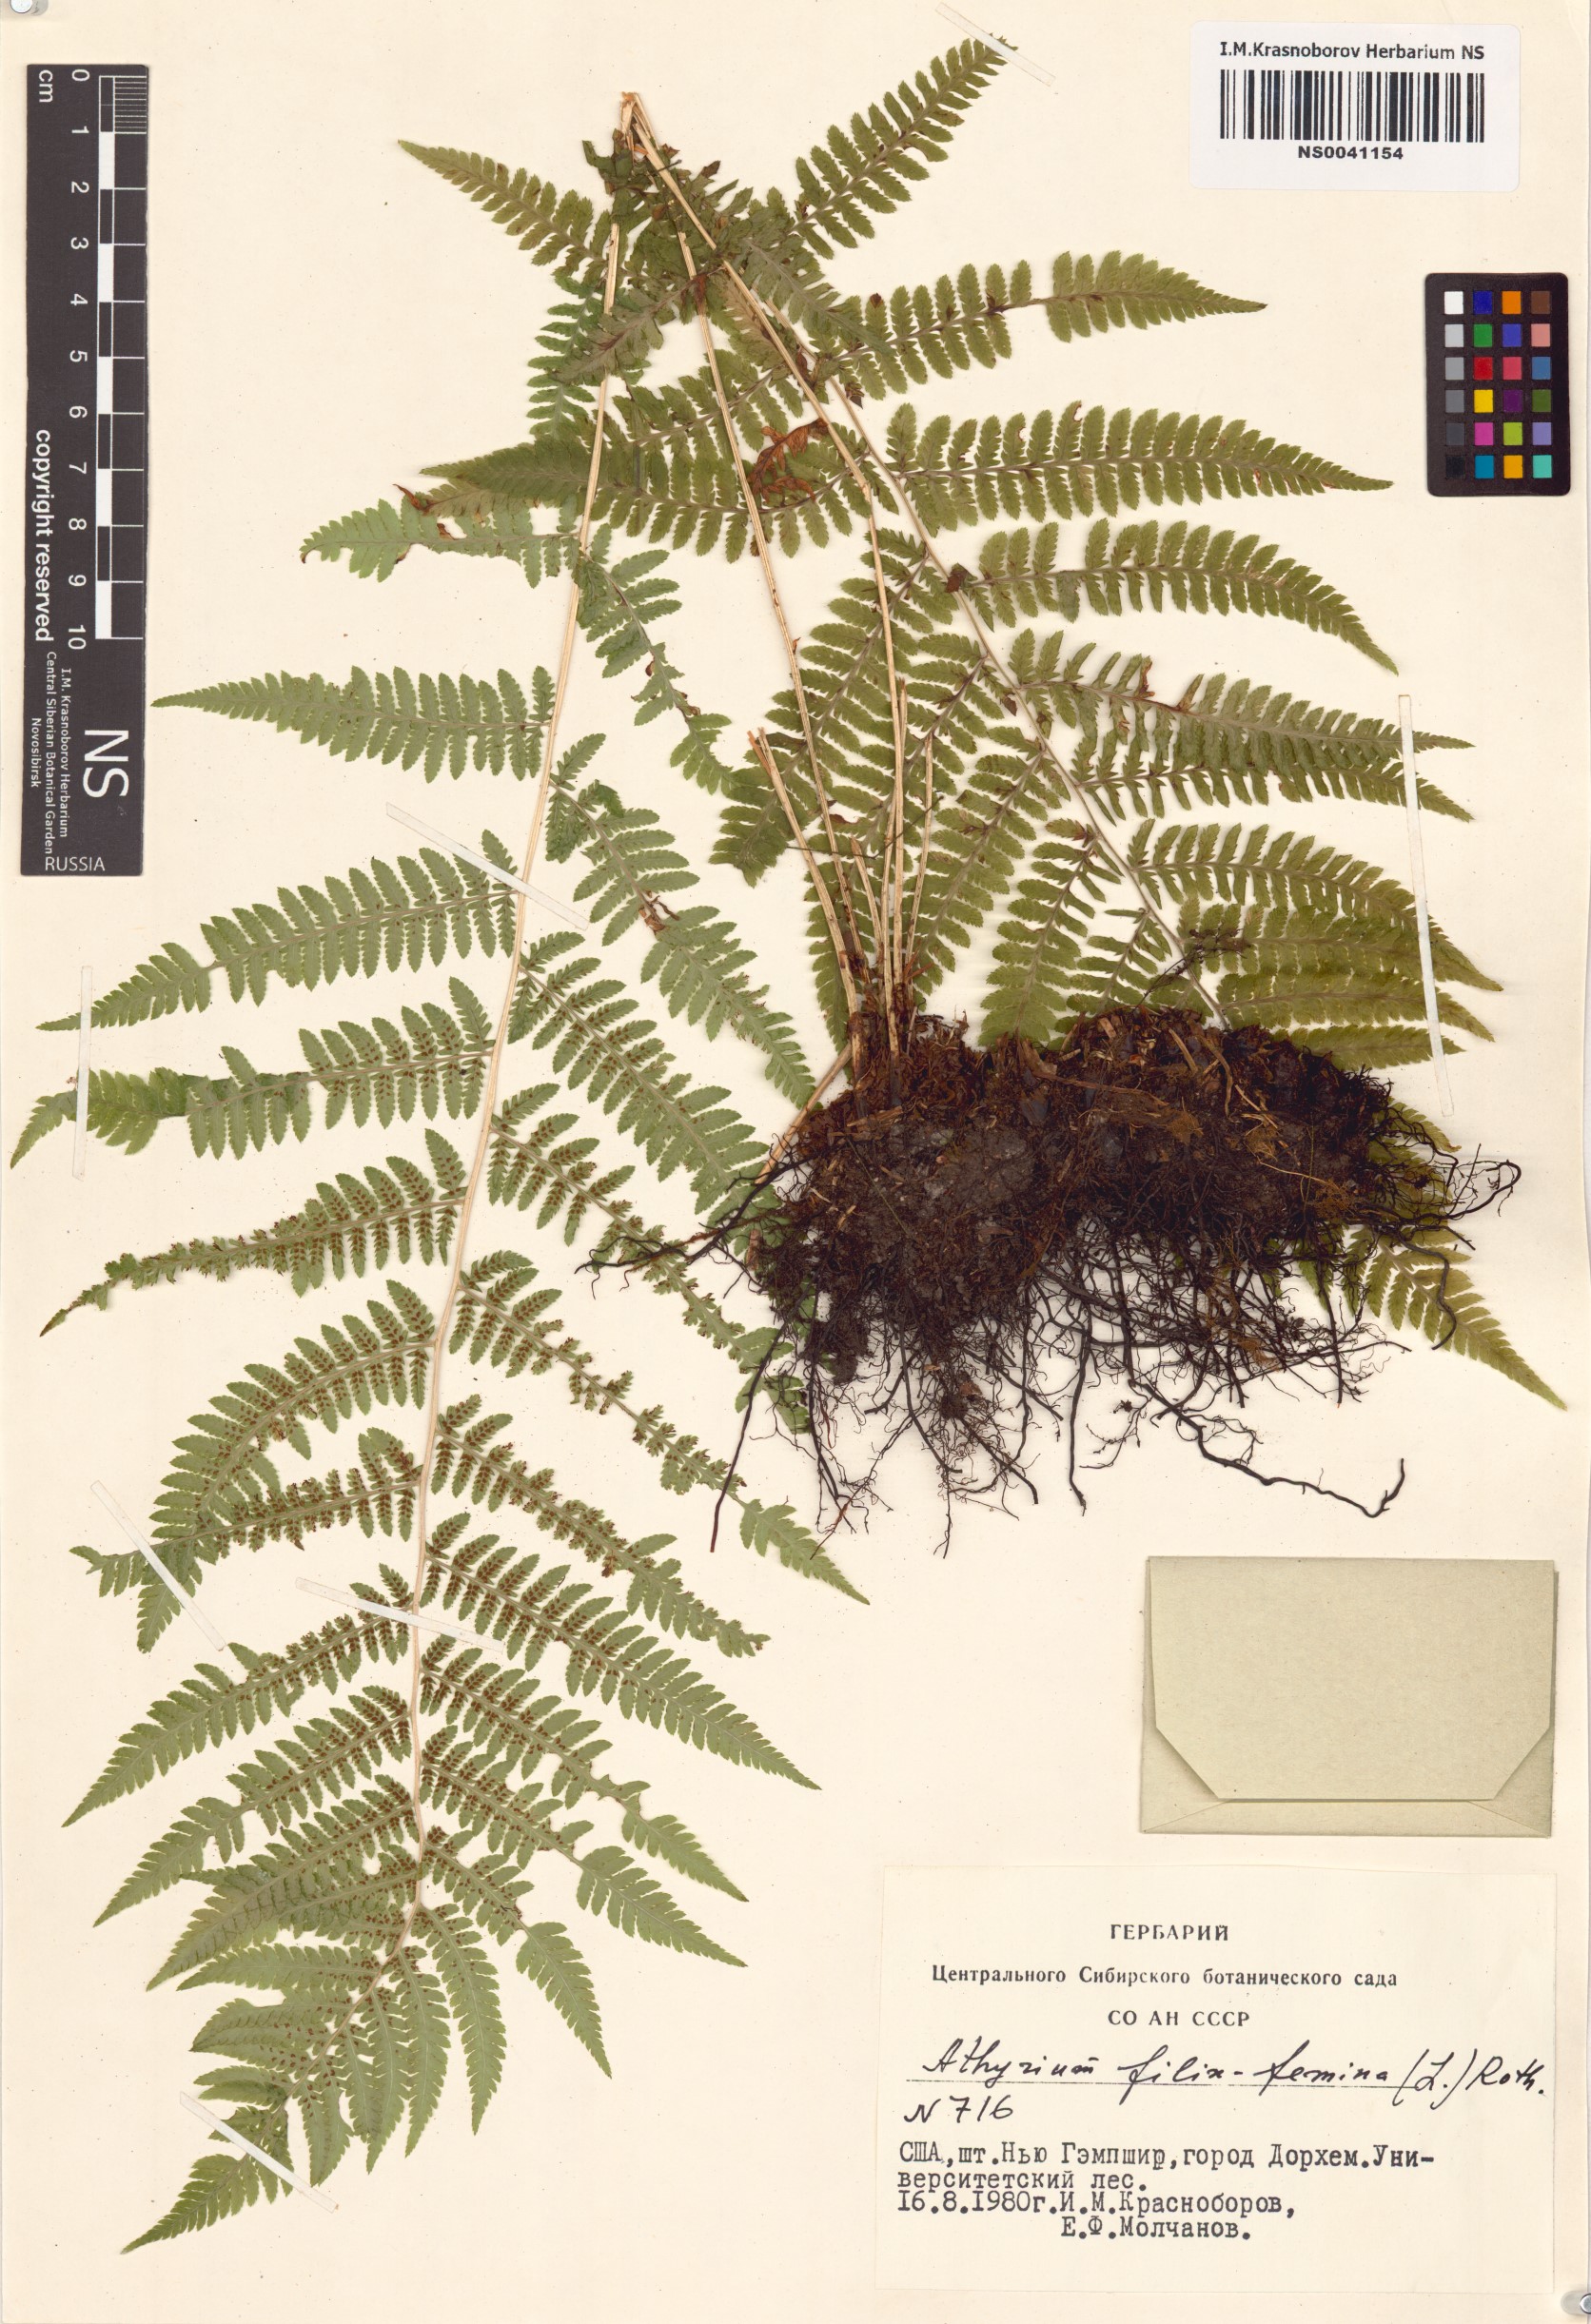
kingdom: Plantae
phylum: Tracheophyta
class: Polypodiopsida
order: Polypodiales
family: Athyriaceae
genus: Athyrium
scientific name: Athyrium filix-femina
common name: Lady fern
